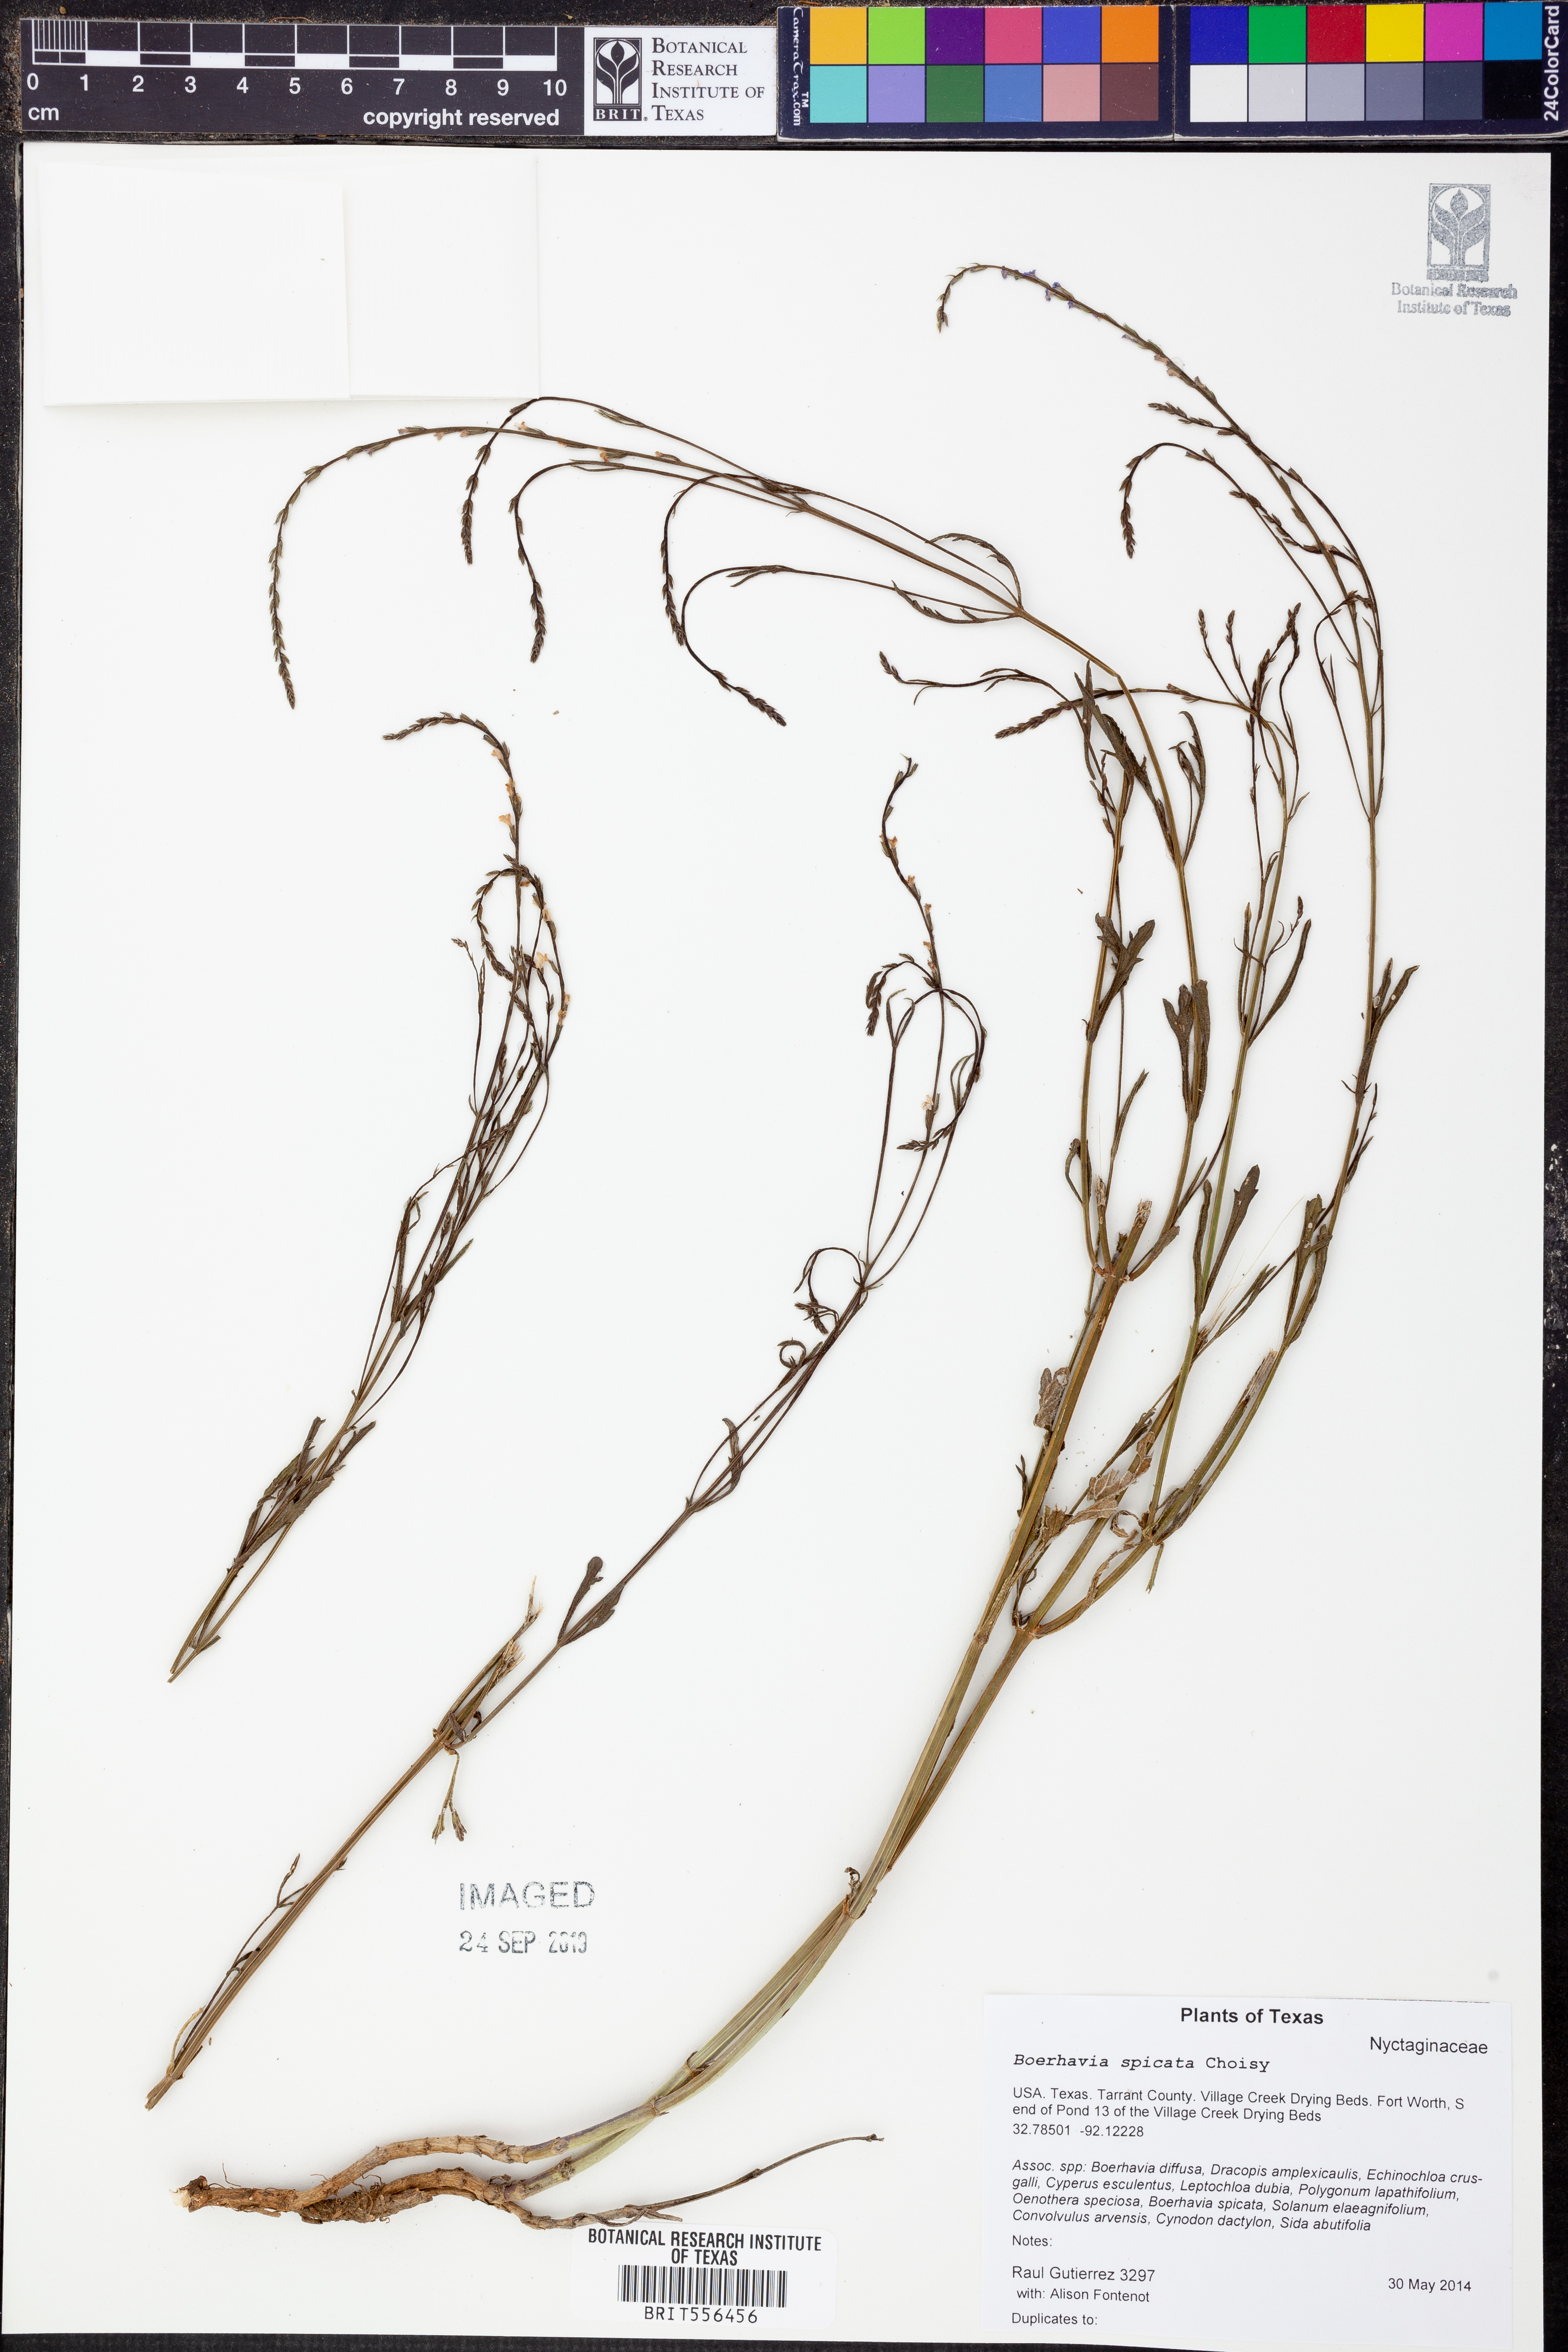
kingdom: Plantae
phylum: Tracheophyta
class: Magnoliopsida
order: Caryophyllales
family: Nyctaginaceae
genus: Boerhavia
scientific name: Boerhavia spicata
